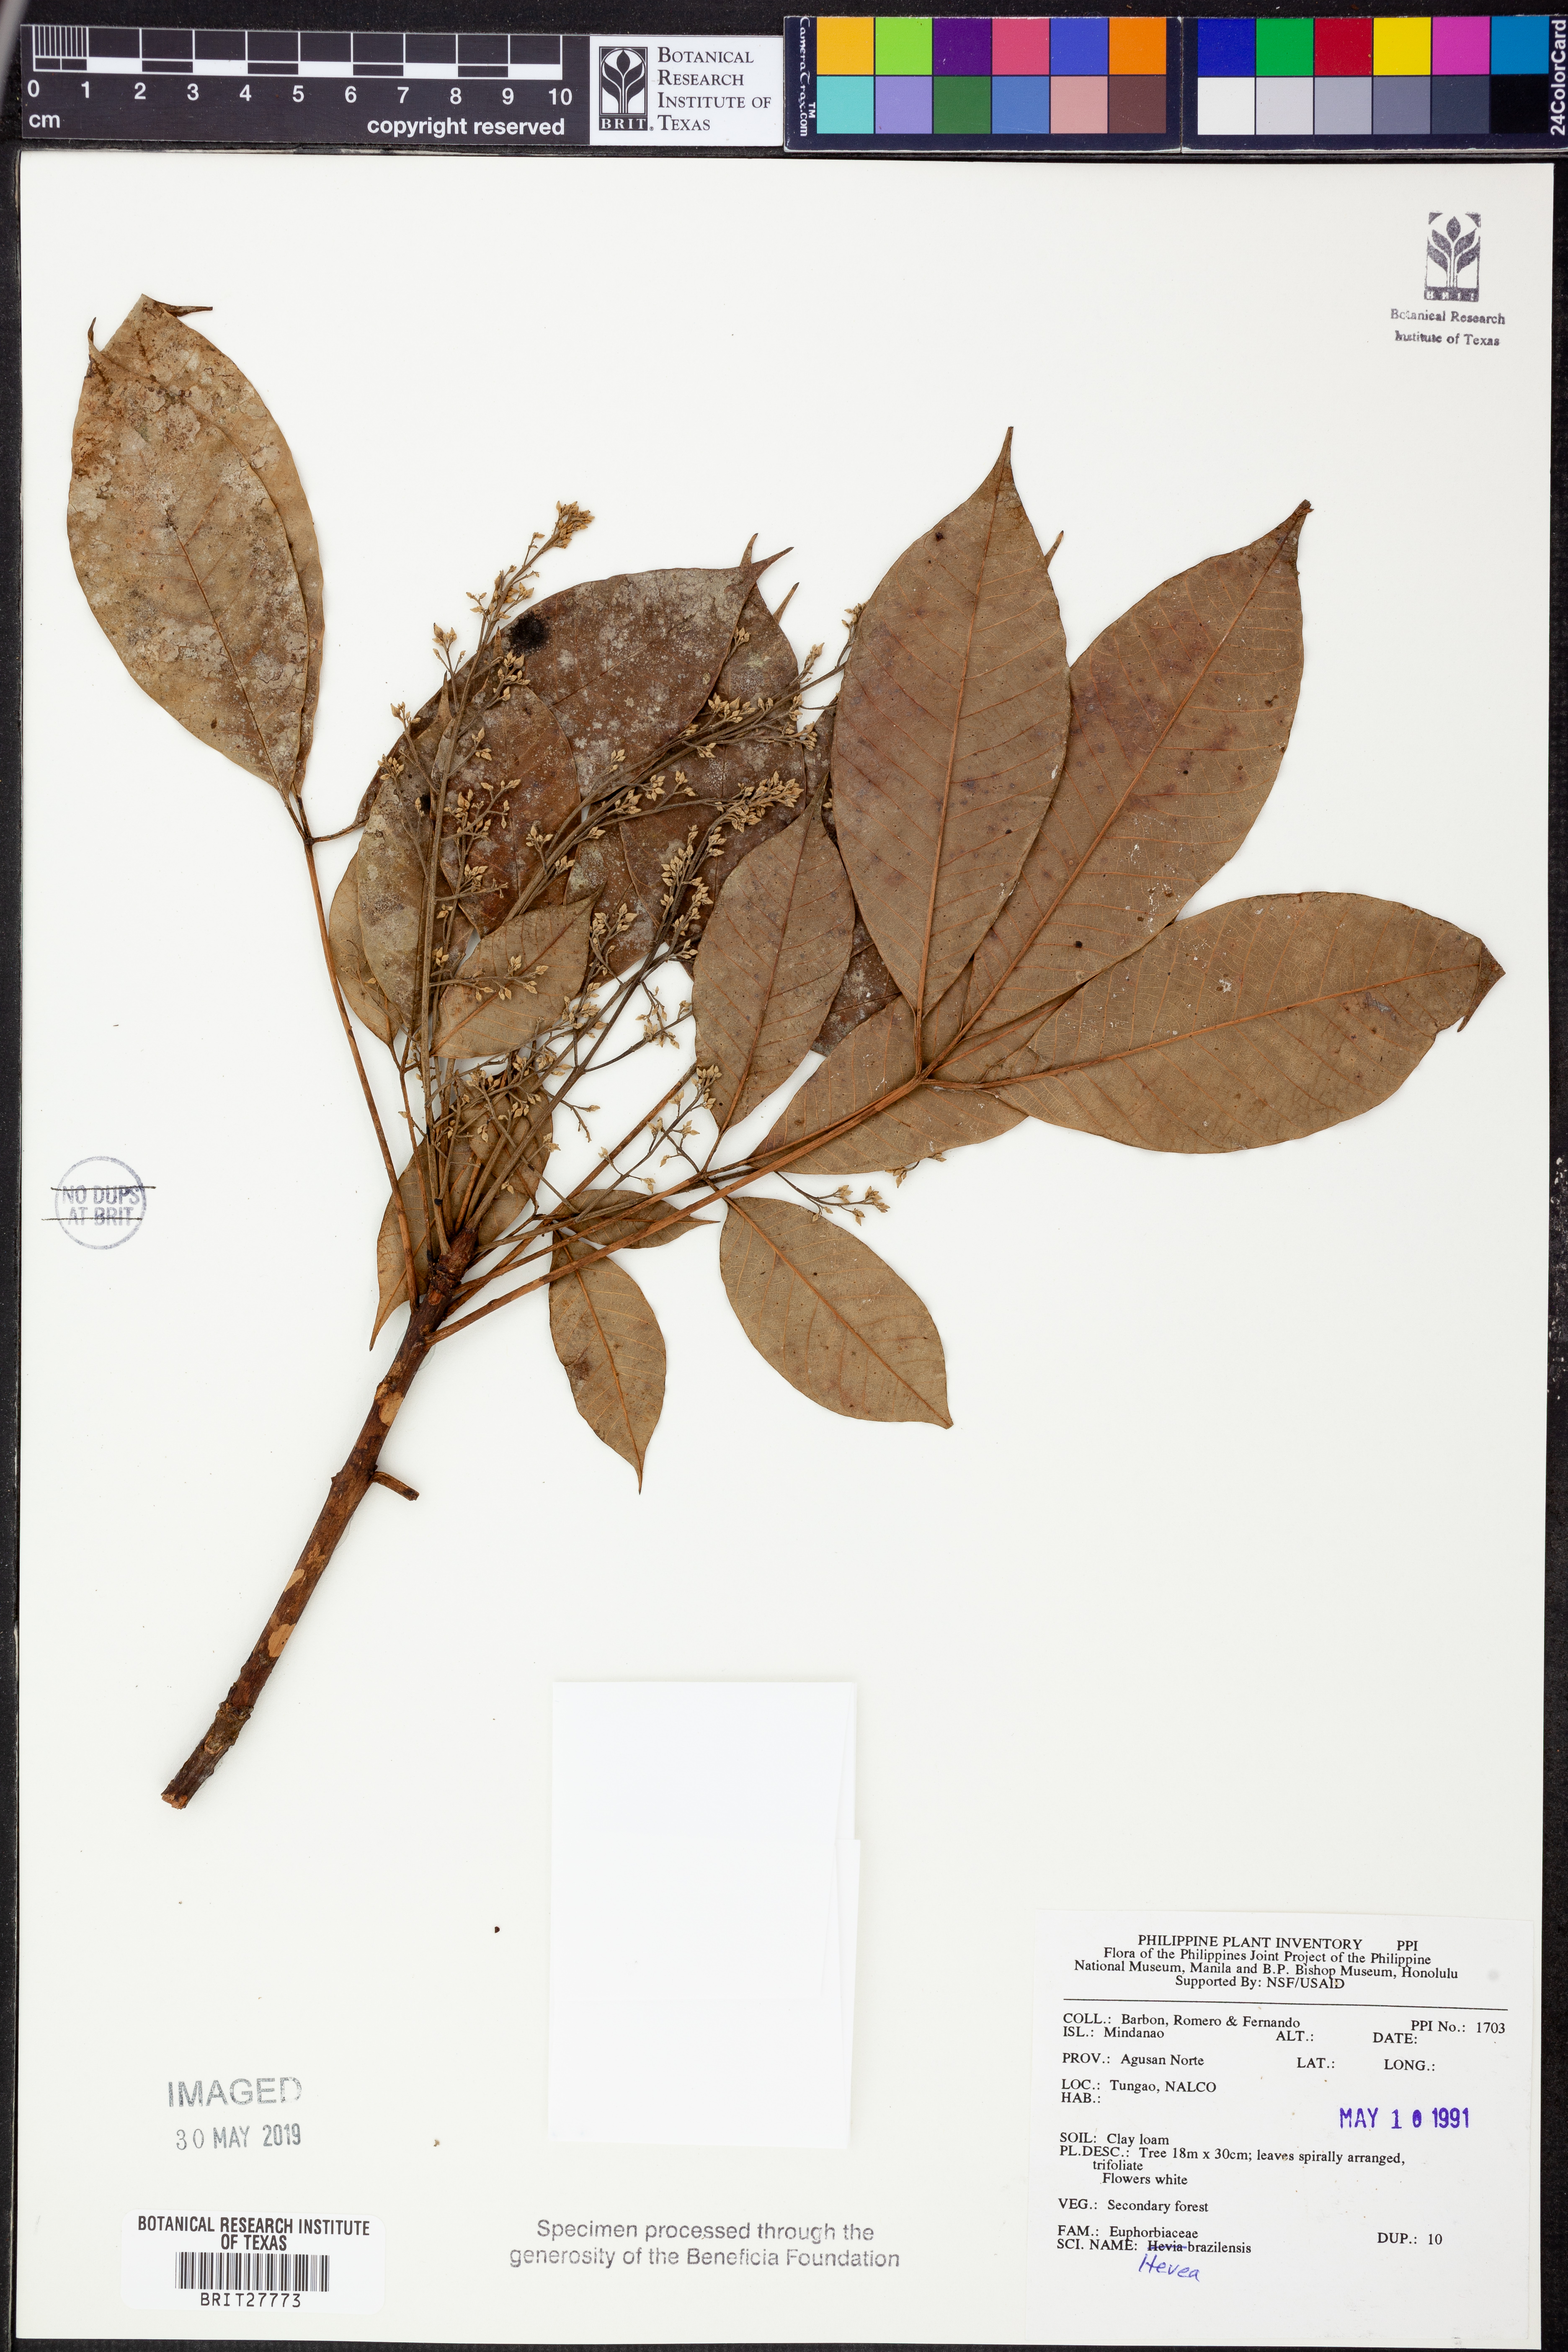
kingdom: Plantae
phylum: Tracheophyta
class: Magnoliopsida
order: Malpighiales
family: Euphorbiaceae
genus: Hevea
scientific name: Hevea brasiliensis
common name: Natural rubber
